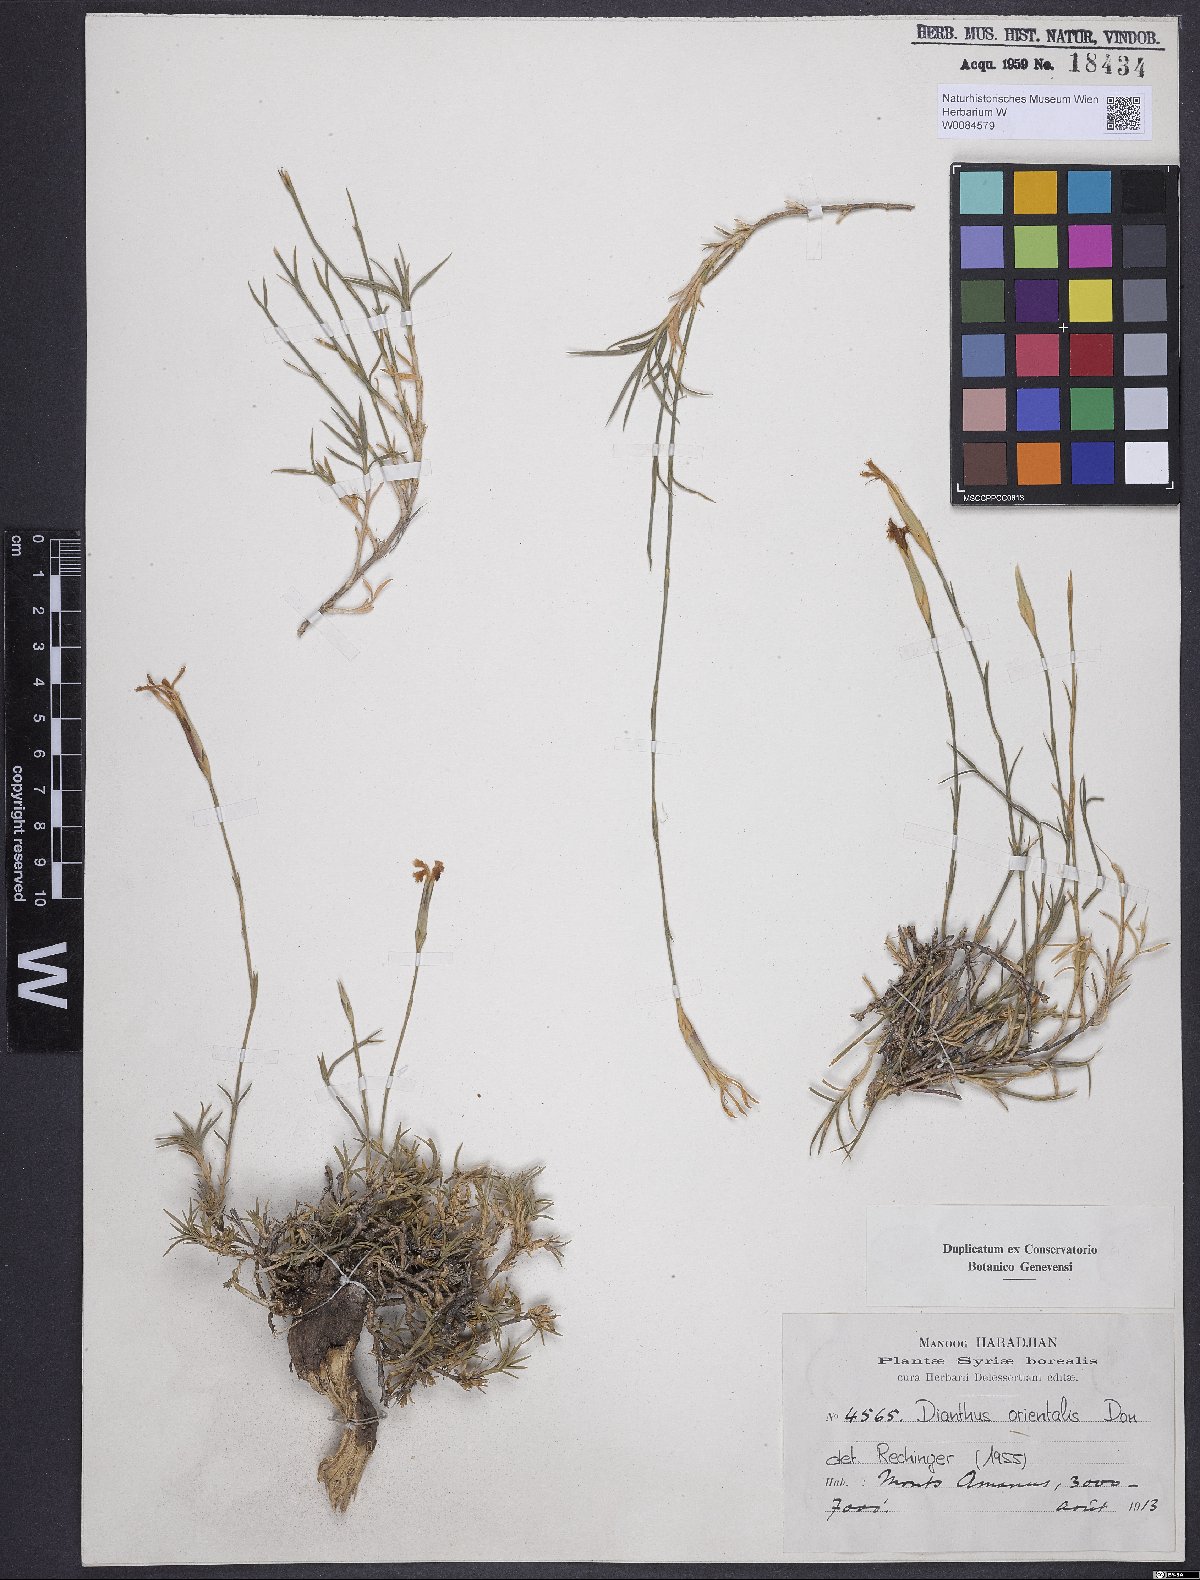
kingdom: Plantae
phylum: Tracheophyta
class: Magnoliopsida
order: Caryophyllales
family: Caryophyllaceae
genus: Dianthus
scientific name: Dianthus orientalis
